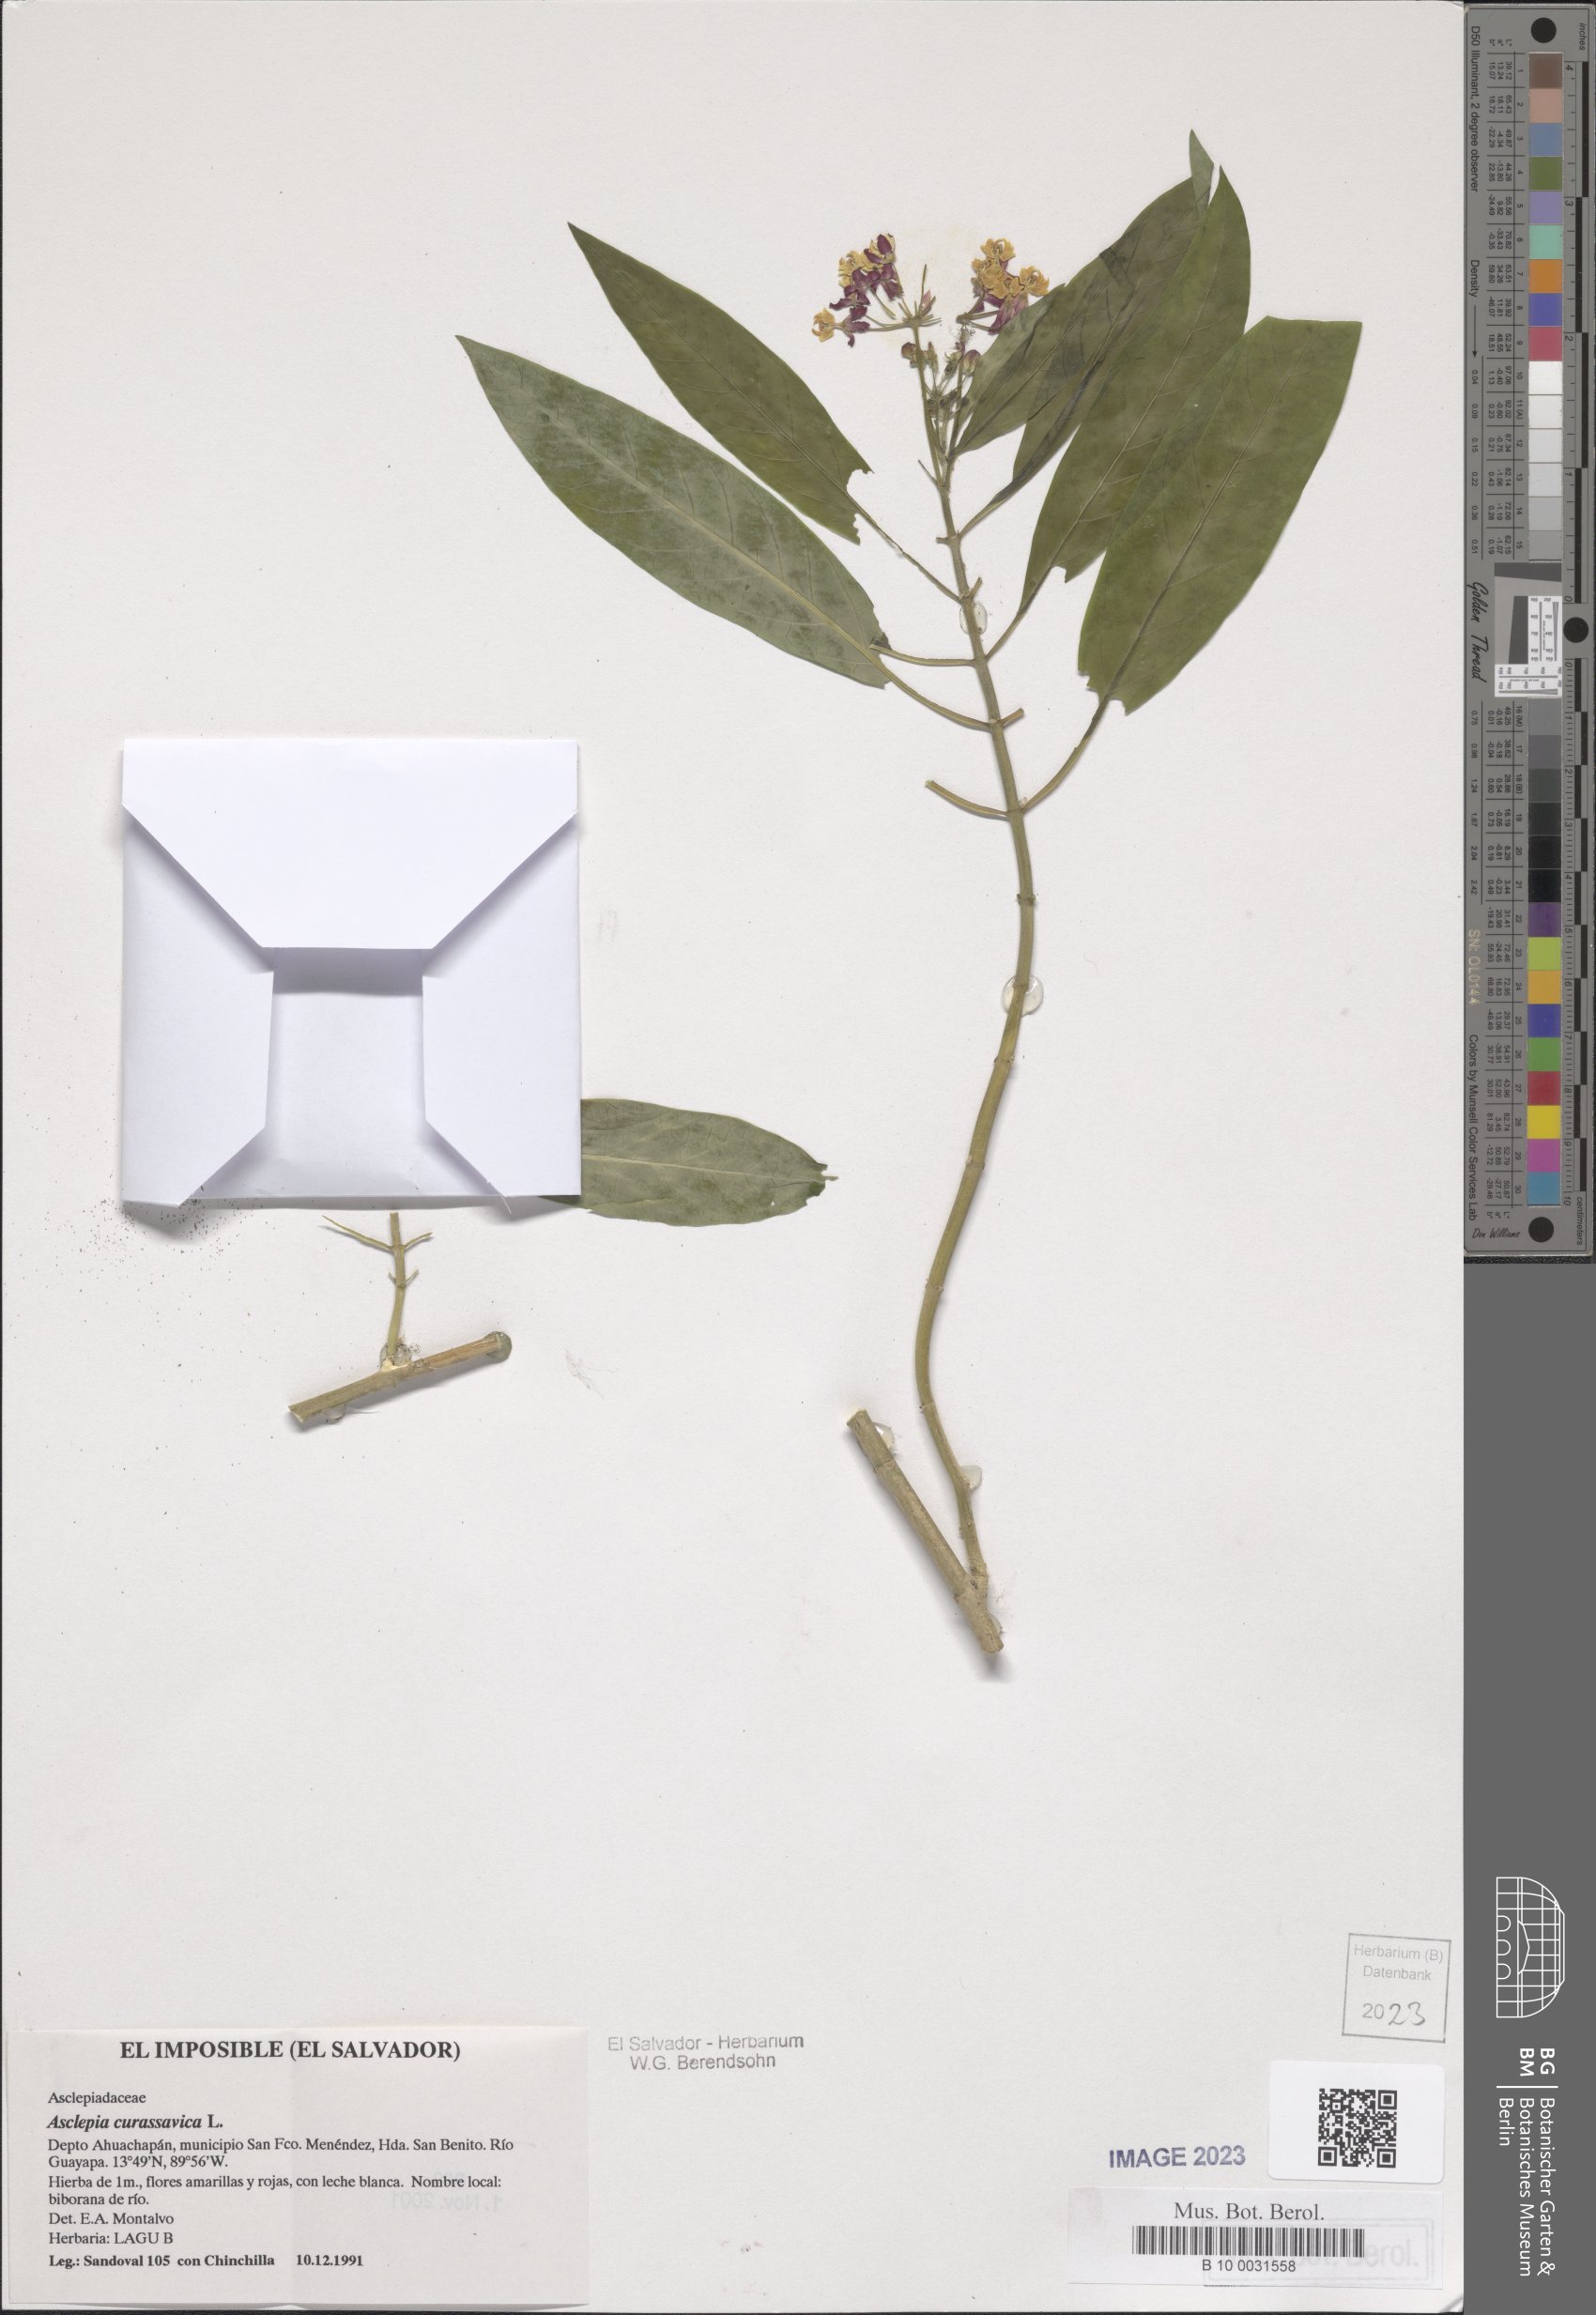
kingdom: Plantae
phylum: Tracheophyta
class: Magnoliopsida
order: Gentianales
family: Apocynaceae
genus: Asclepias
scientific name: Asclepias curassavica
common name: Bloodflower
